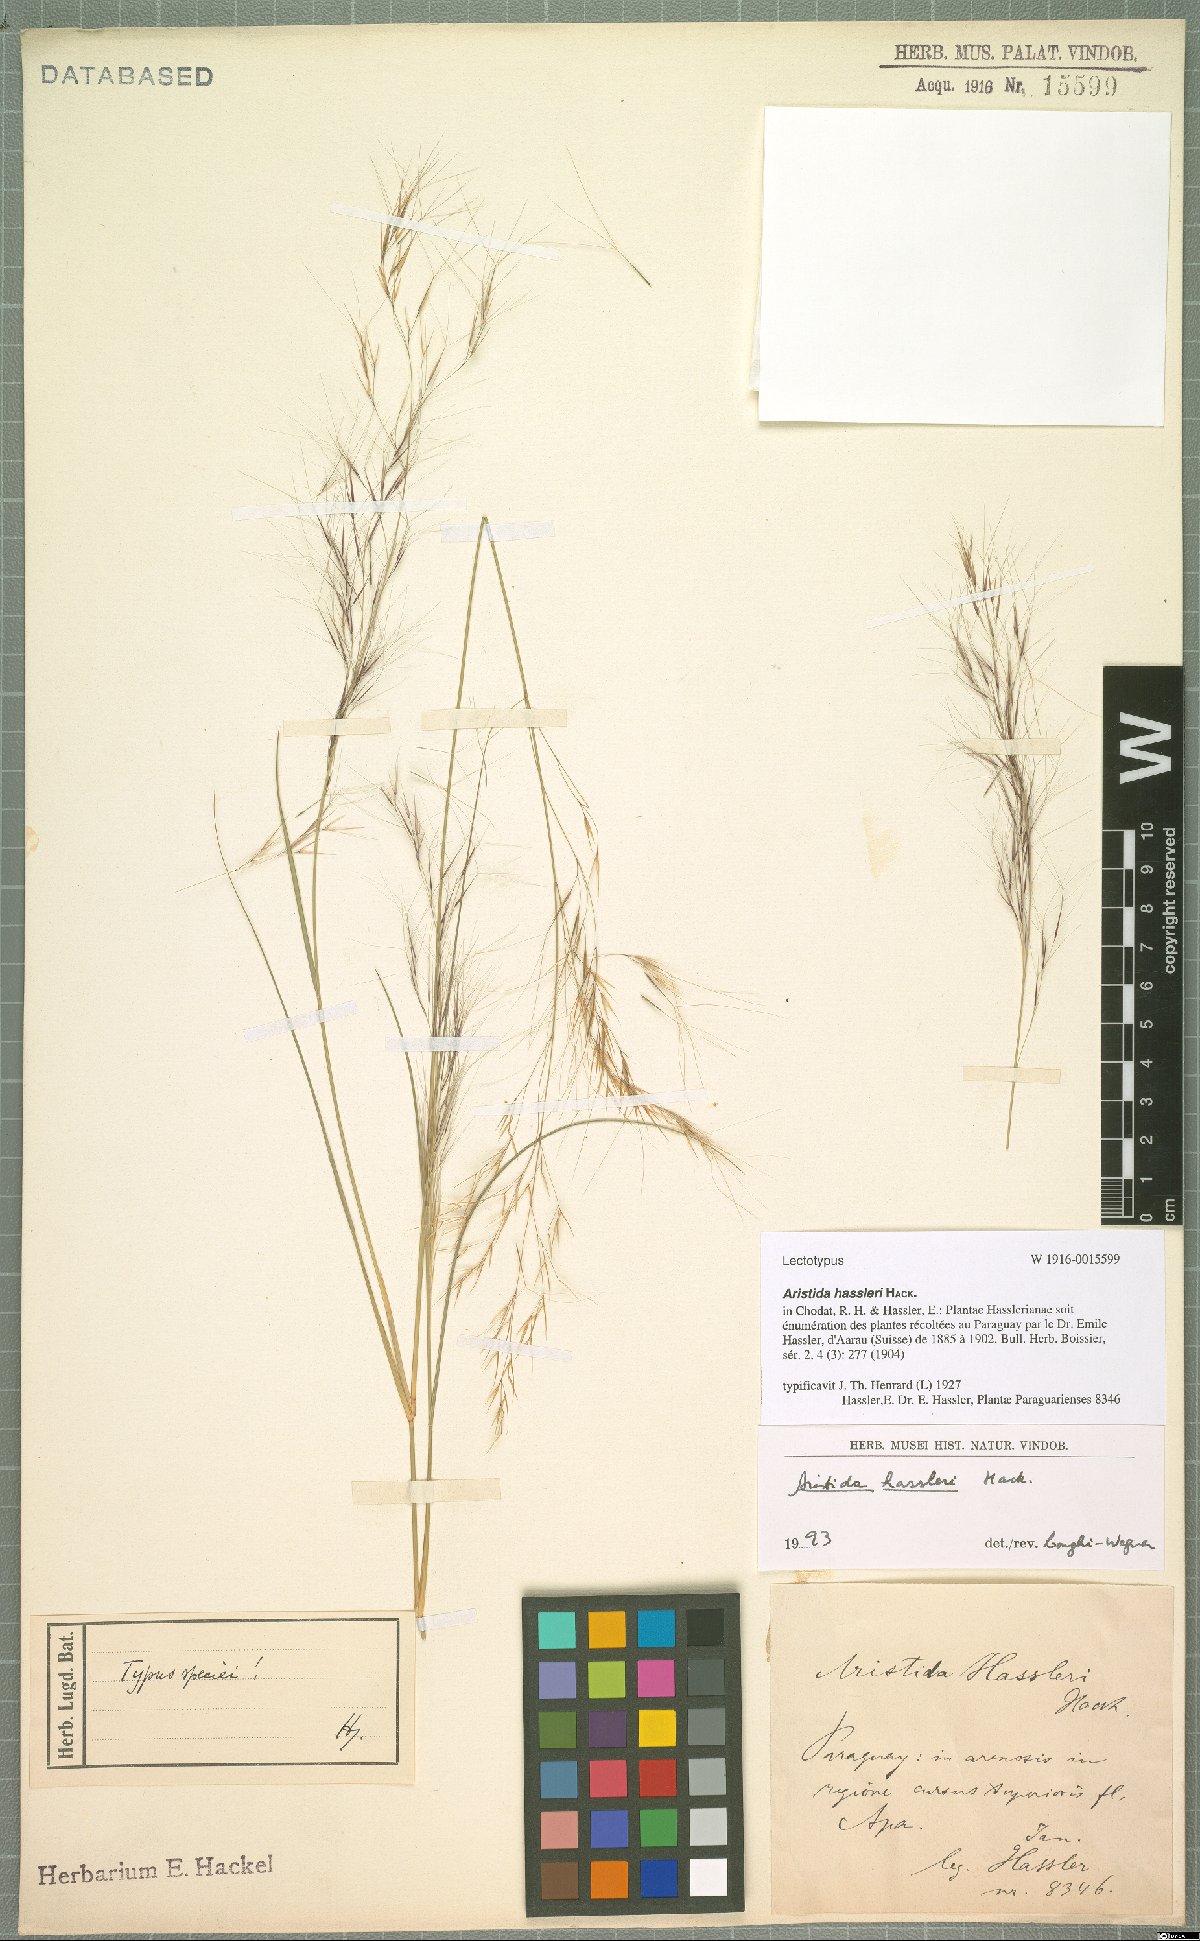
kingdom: Plantae
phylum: Tracheophyta
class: Liliopsida
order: Poales
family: Poaceae
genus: Aristida
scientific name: Aristida hassleri
